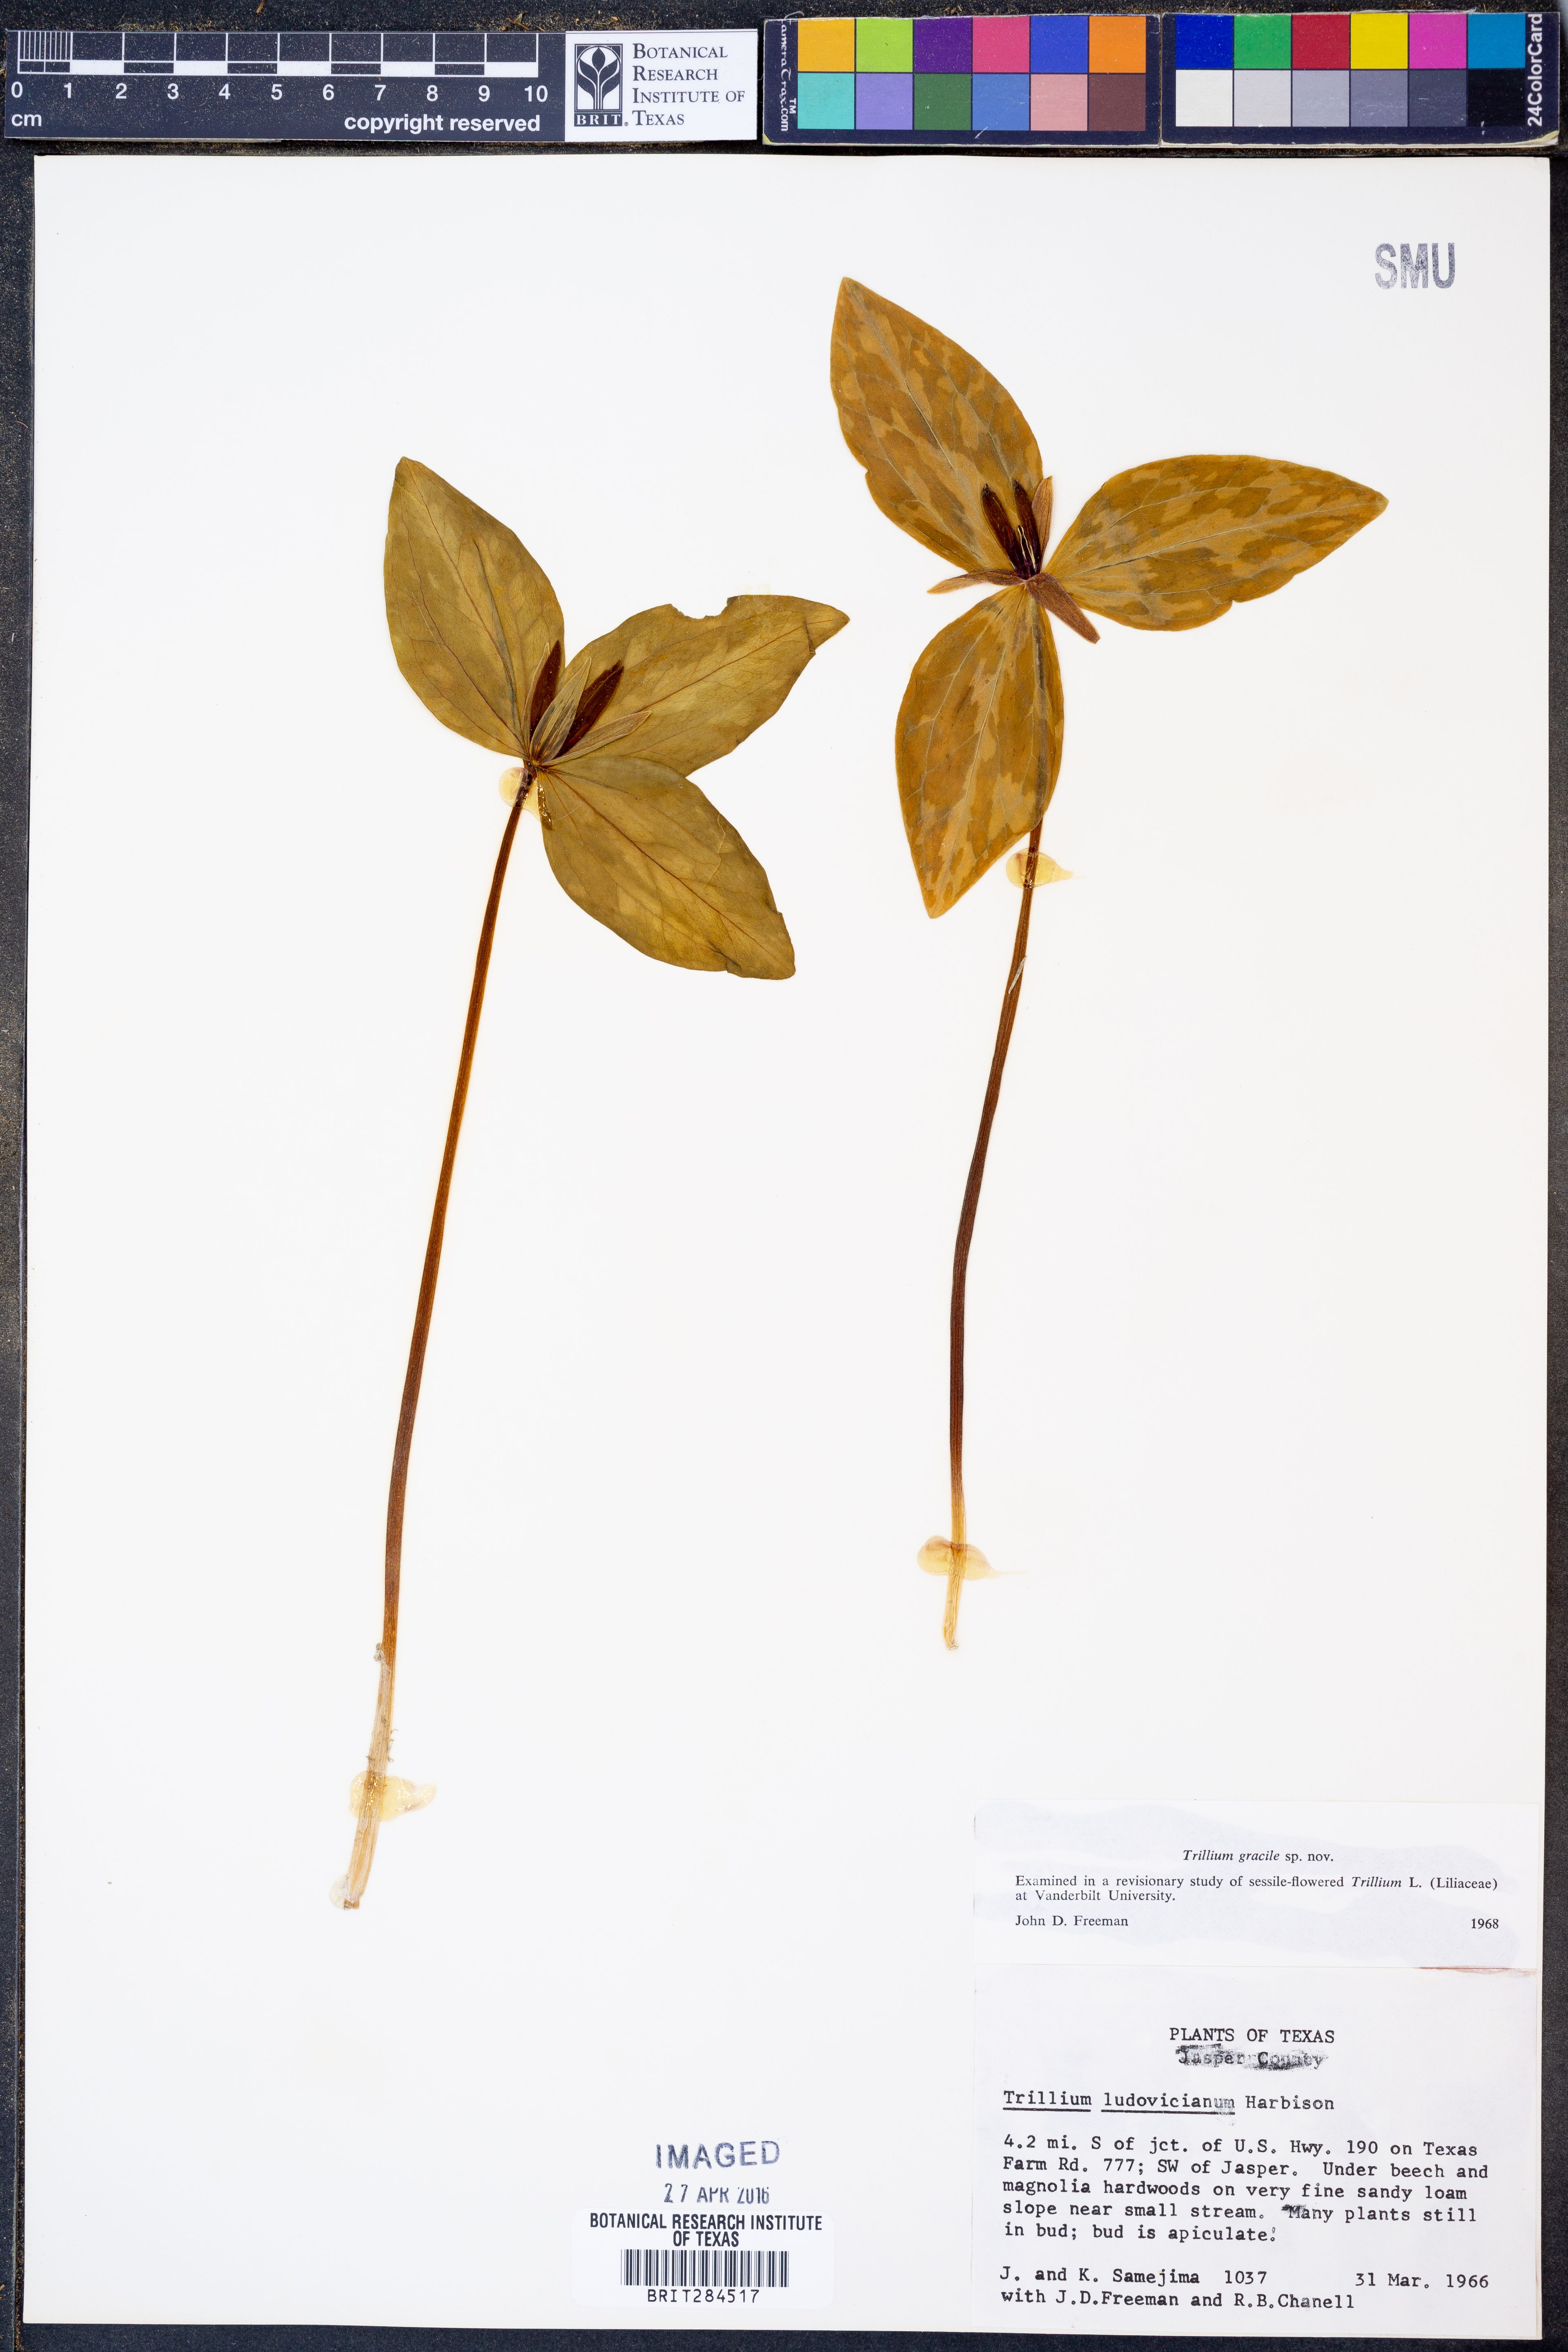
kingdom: Plantae
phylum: Tracheophyta
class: Liliopsida
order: Liliales
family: Melanthiaceae
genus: Trillium
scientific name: Trillium gracile
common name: Graceful trillium
